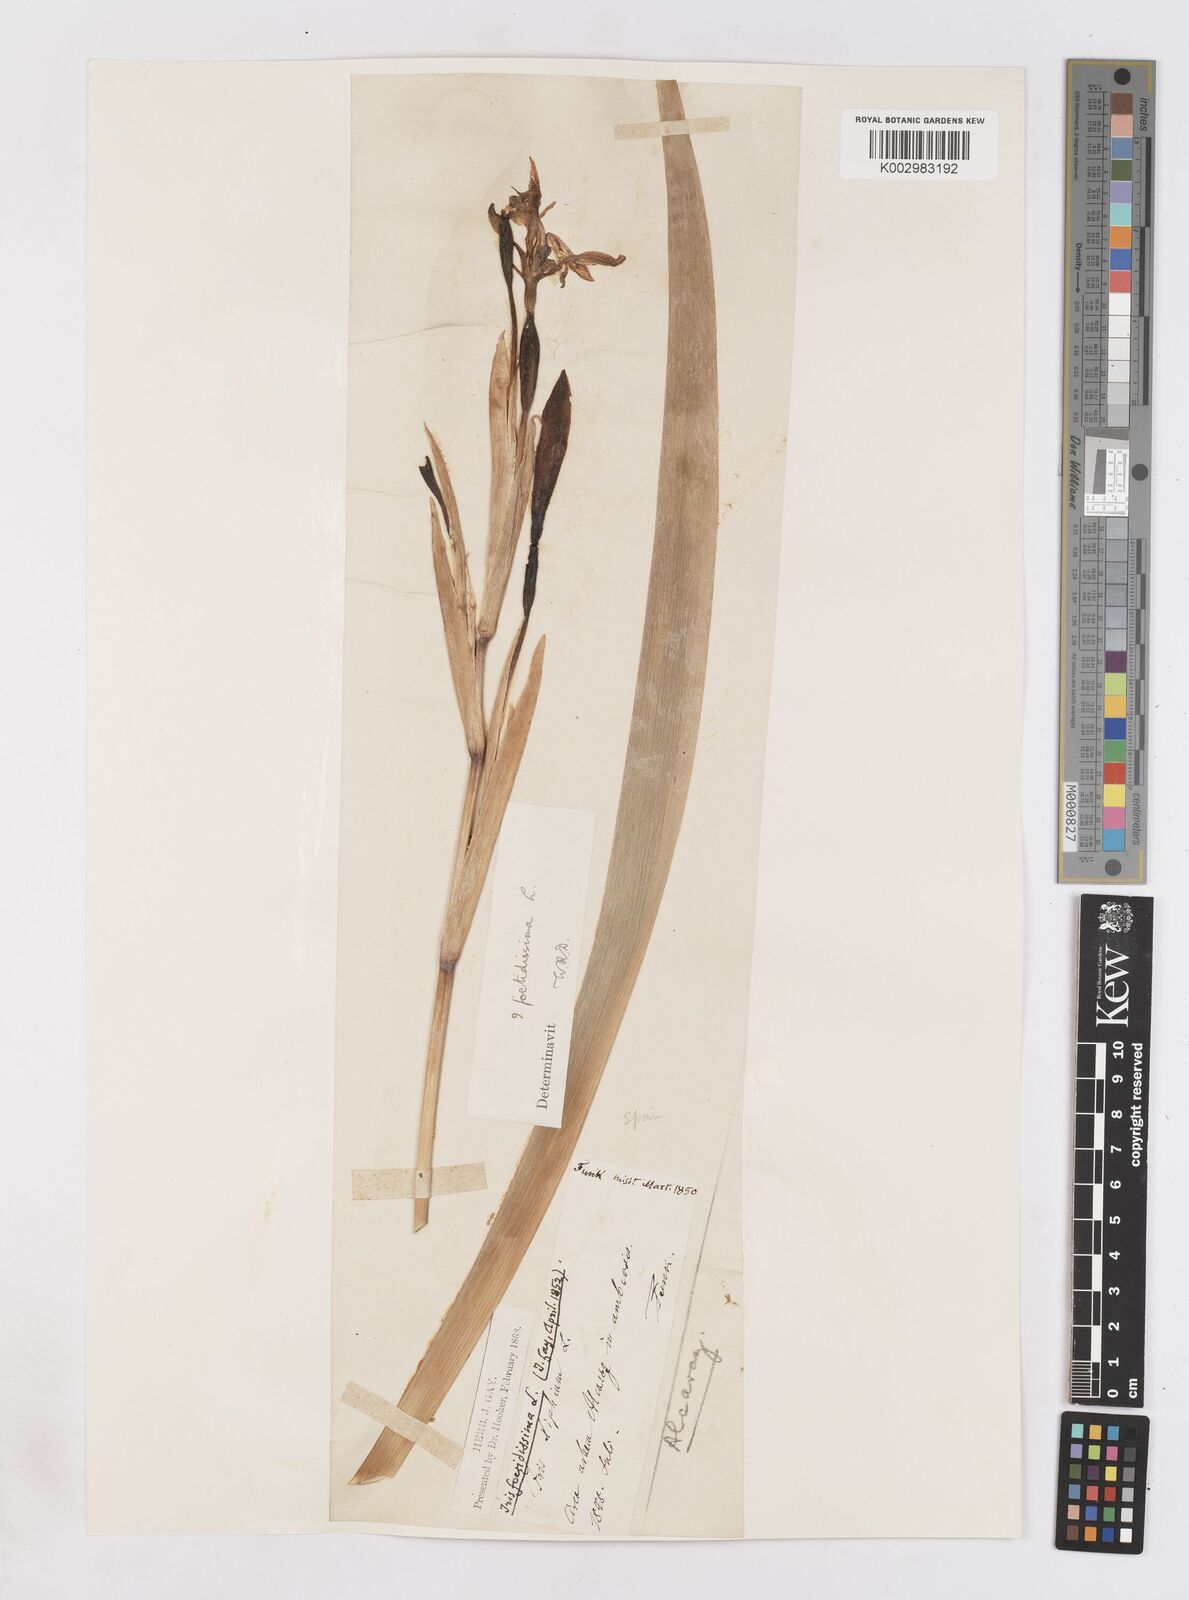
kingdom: Plantae
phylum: Tracheophyta
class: Liliopsida
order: Asparagales
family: Iridaceae
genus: Iris
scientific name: Iris foetidissima
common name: Stinking iris
